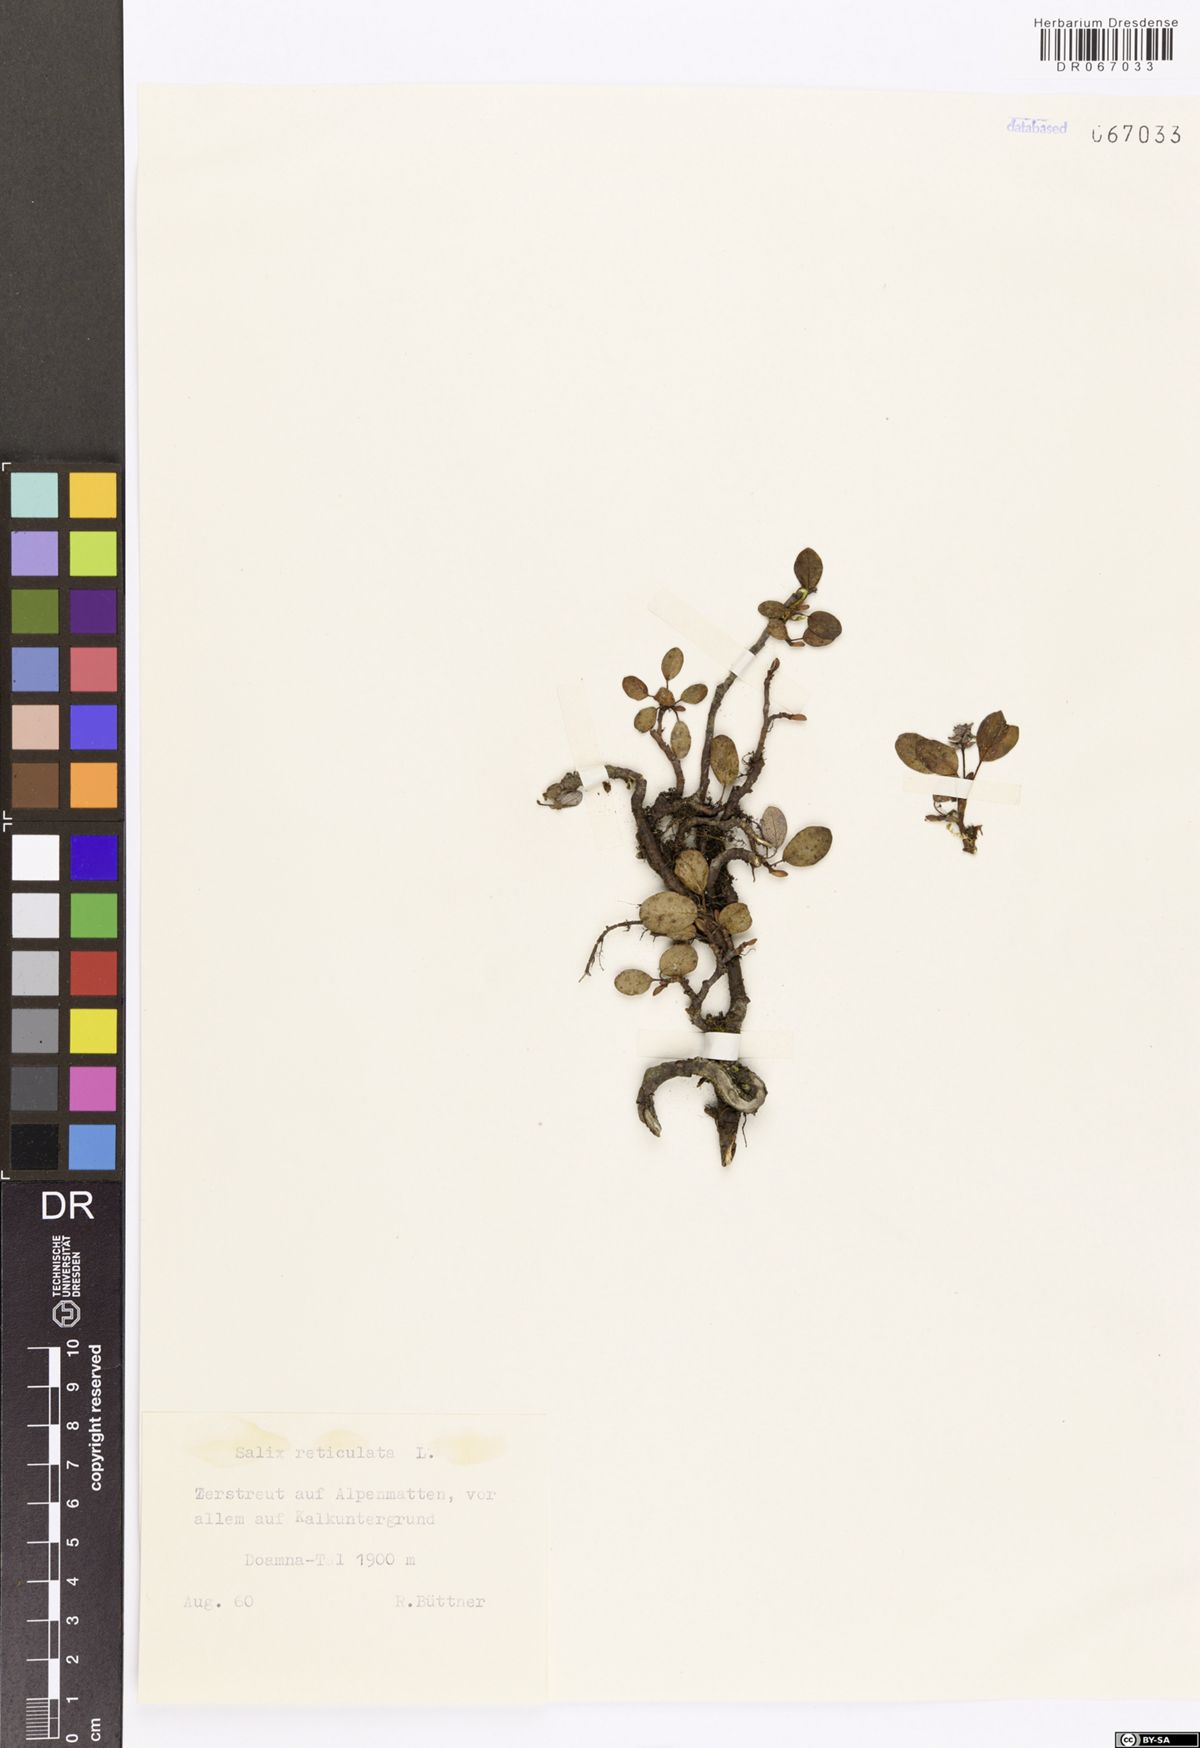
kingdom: Plantae
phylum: Tracheophyta
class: Magnoliopsida
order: Malpighiales
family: Salicaceae
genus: Salix
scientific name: Salix reticulata
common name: Net-leaved willow
